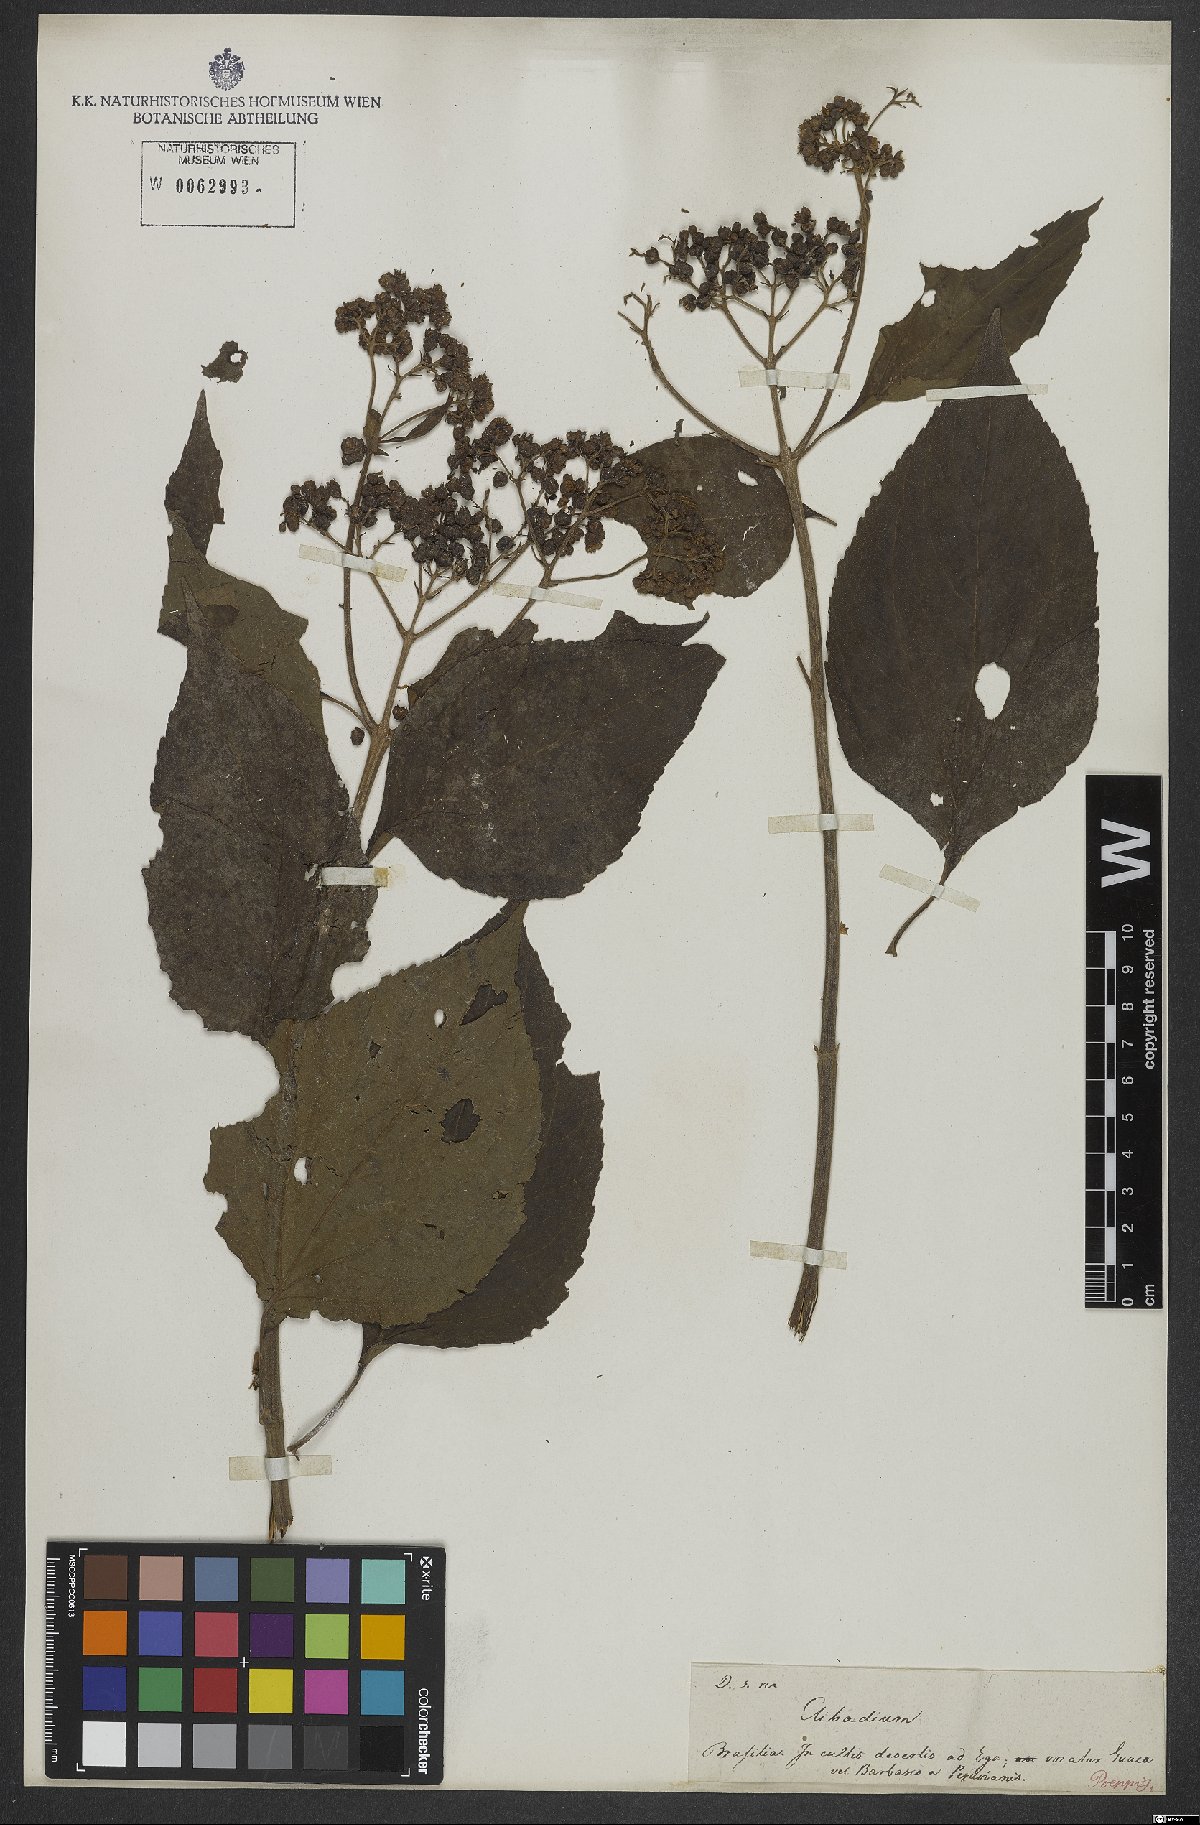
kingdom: Plantae
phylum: Tracheophyta
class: Magnoliopsida
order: Asterales
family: Asteraceae
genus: Clibadium
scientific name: Clibadium
